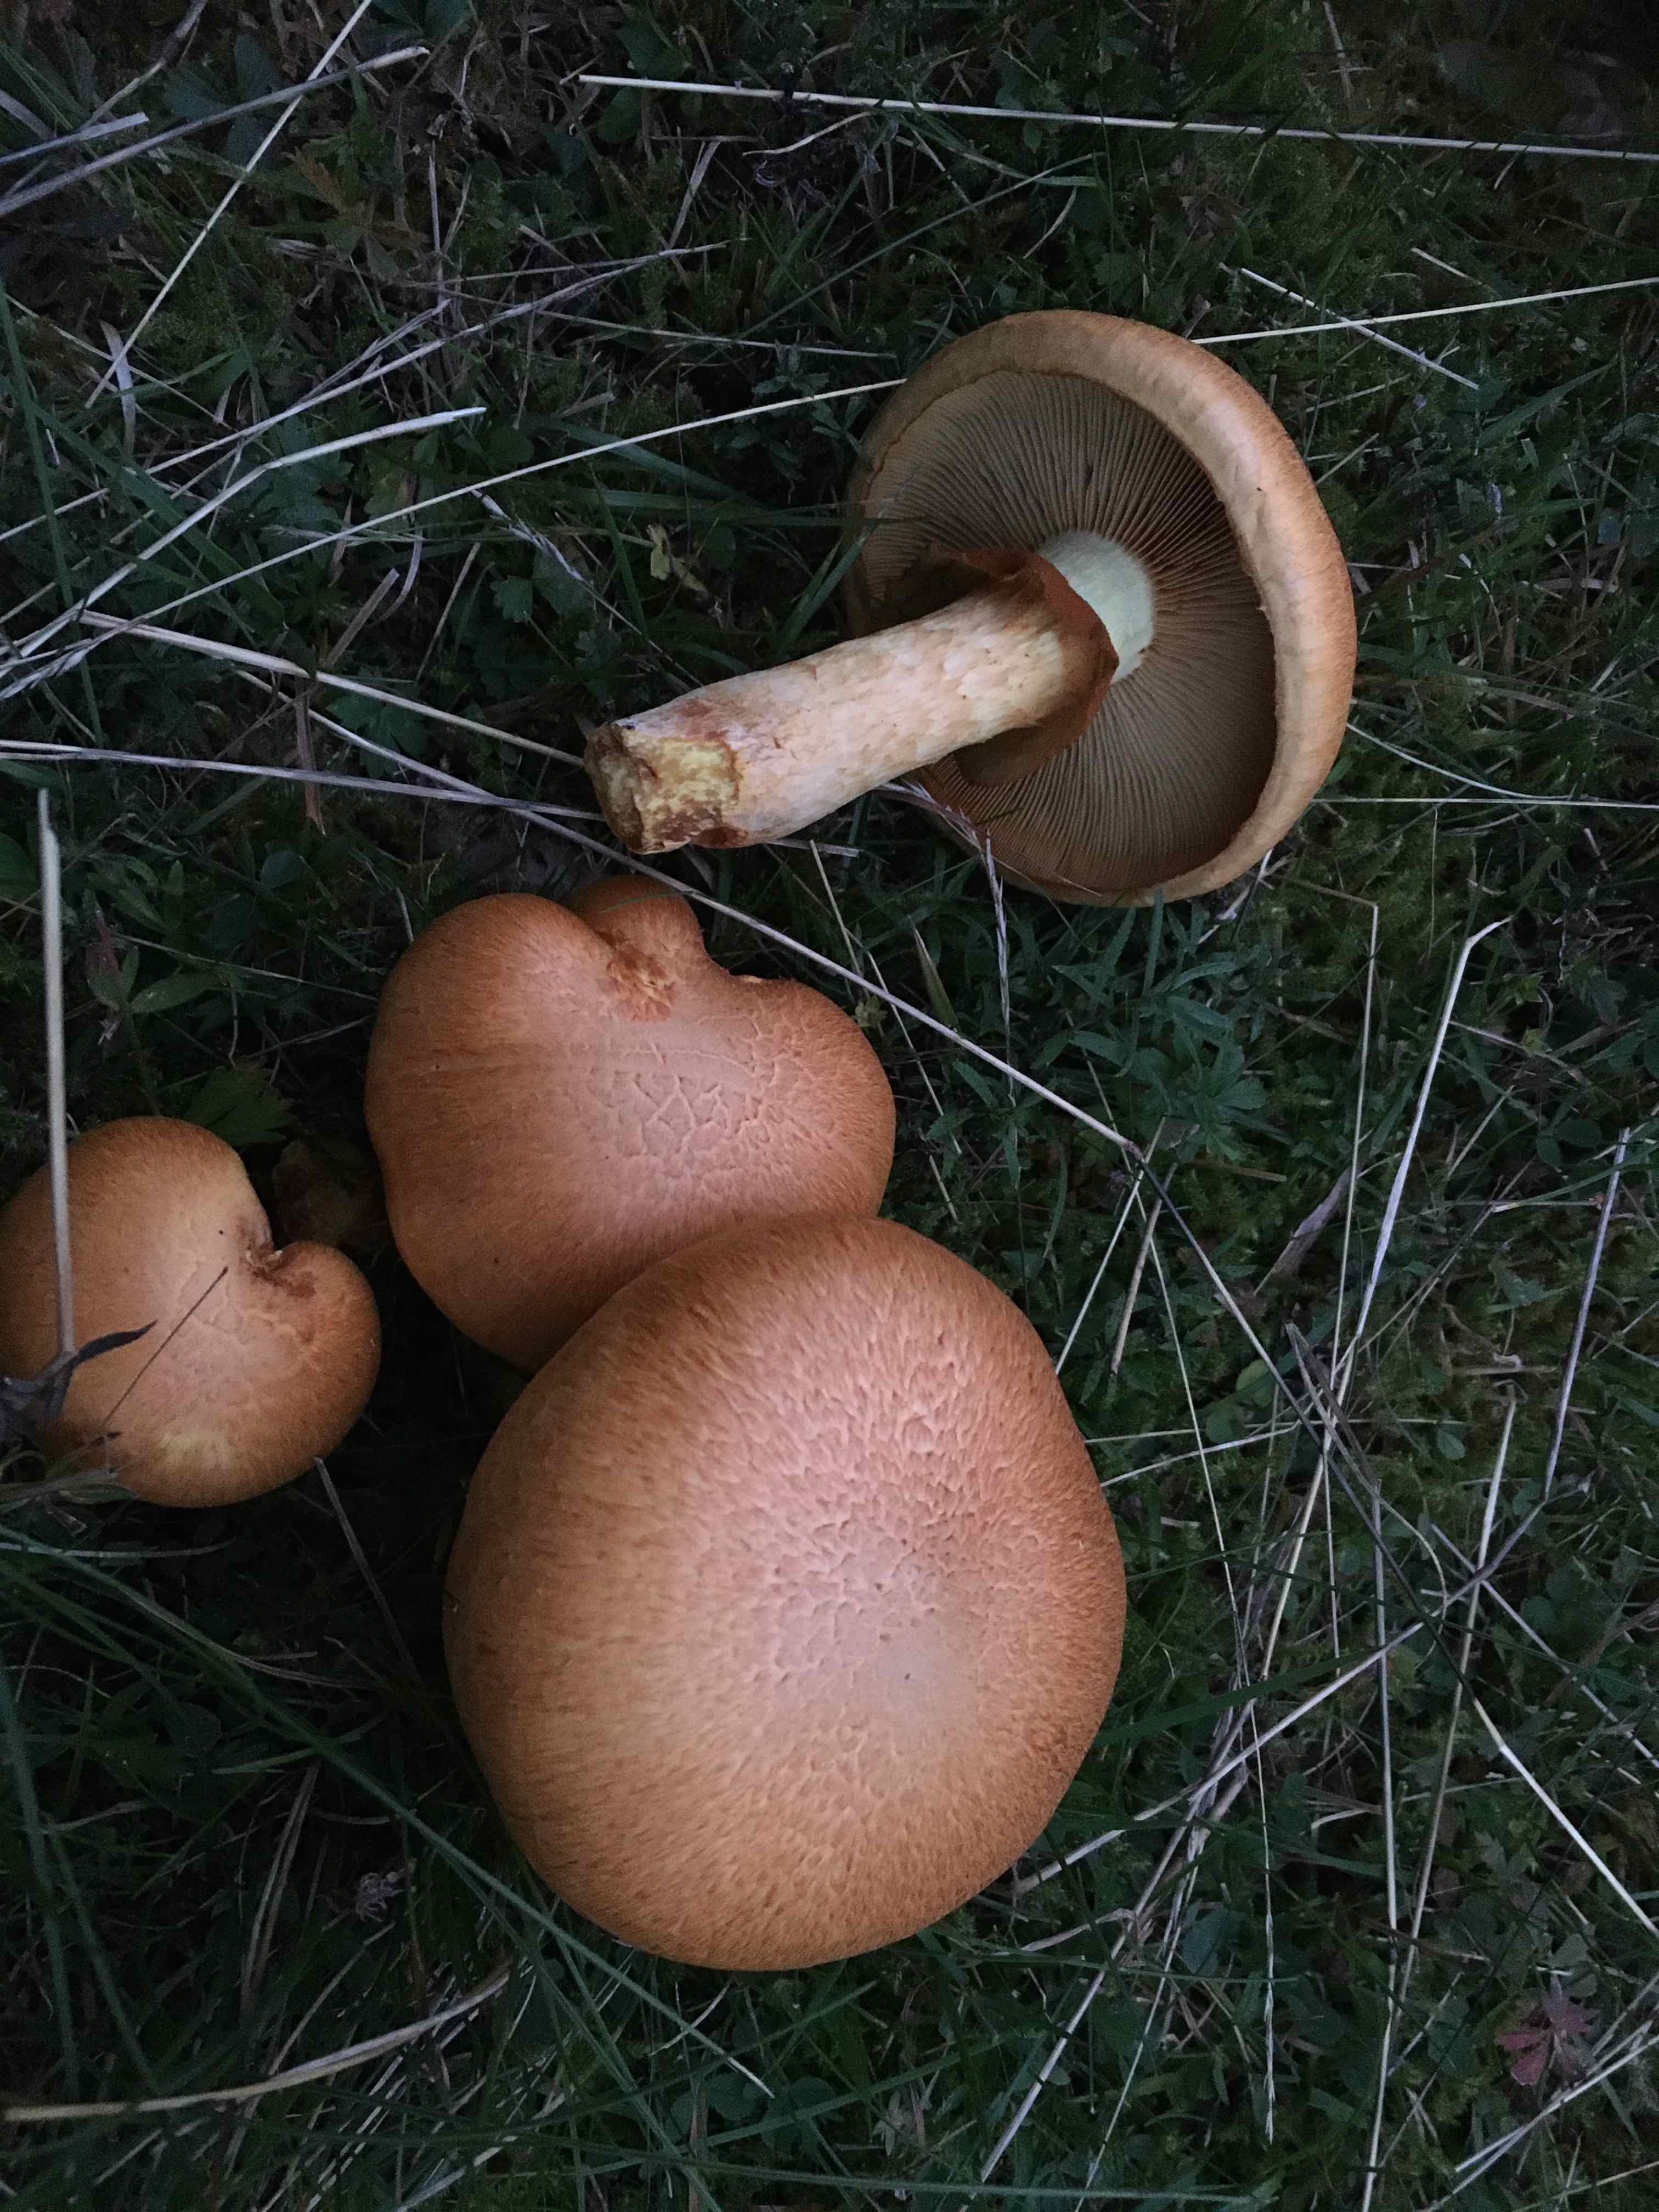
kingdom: Fungi
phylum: Basidiomycota
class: Agaricomycetes
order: Agaricales
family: Hymenogastraceae
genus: Gymnopilus
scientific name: Gymnopilus spectabilis
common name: fibret flammehat
